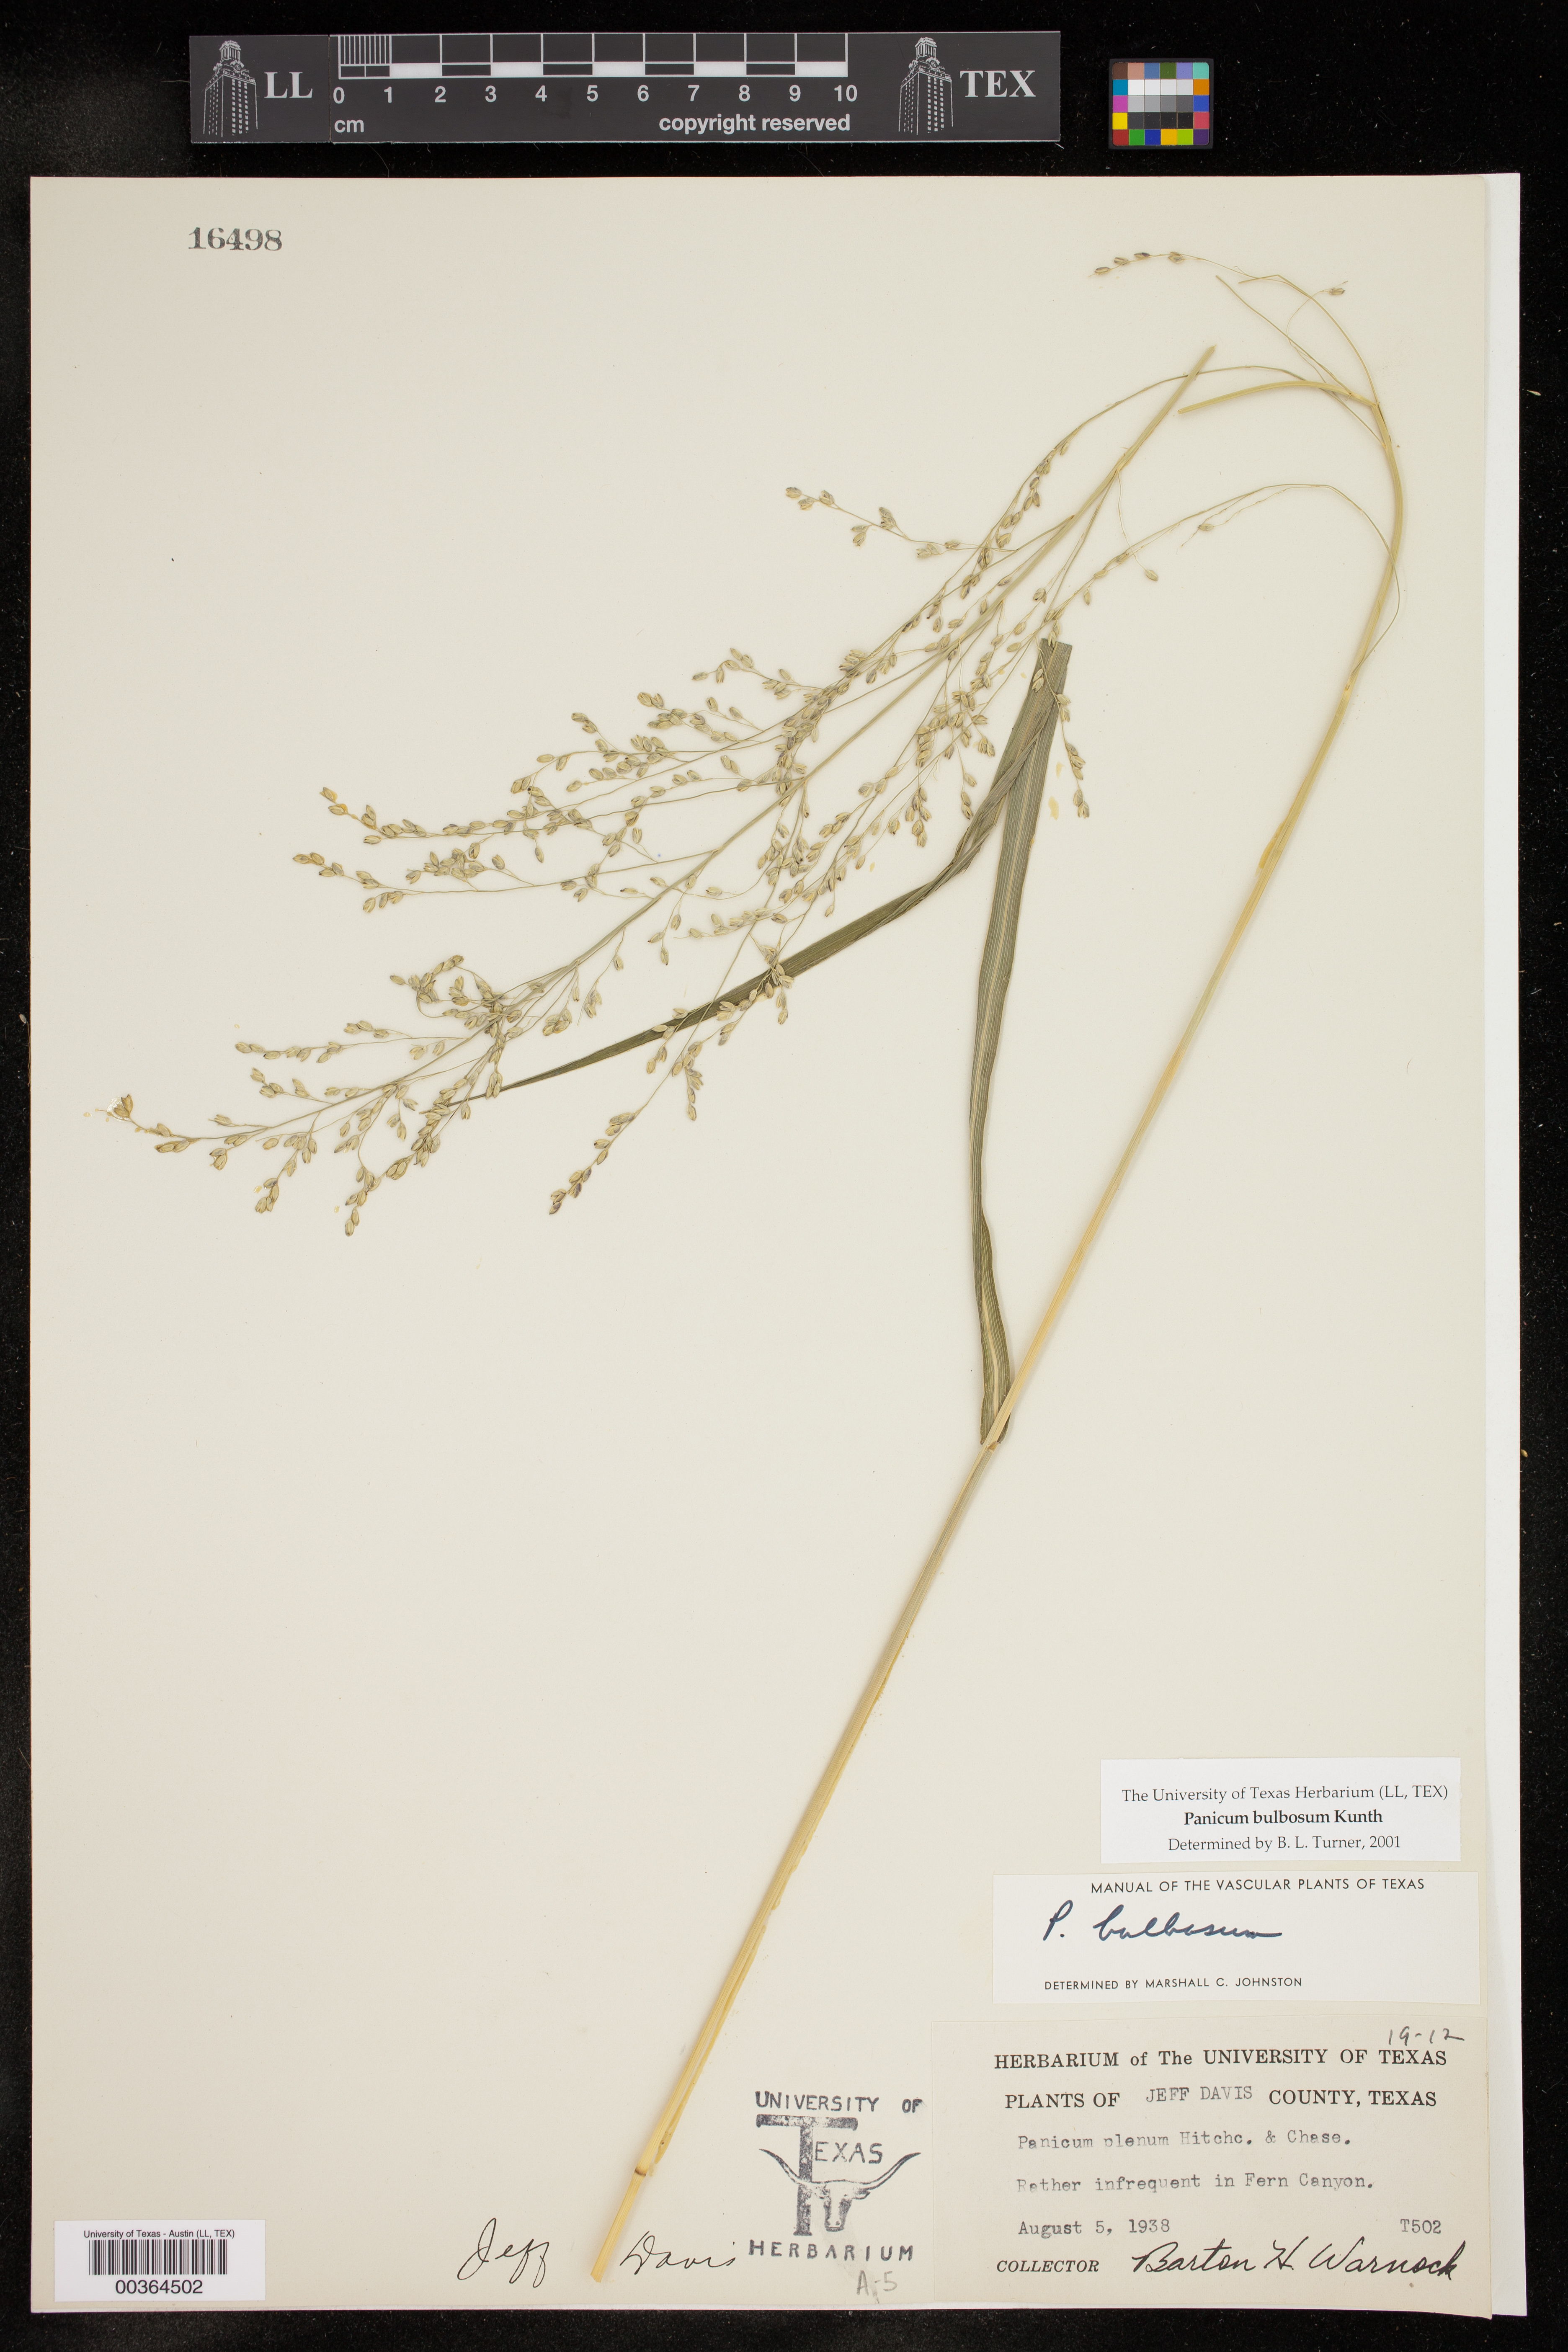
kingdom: Plantae
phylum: Tracheophyta
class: Liliopsida
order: Poales
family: Poaceae
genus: Zuloagaea
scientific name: Zuloagaea bulbosa
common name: Canyon panic grass
